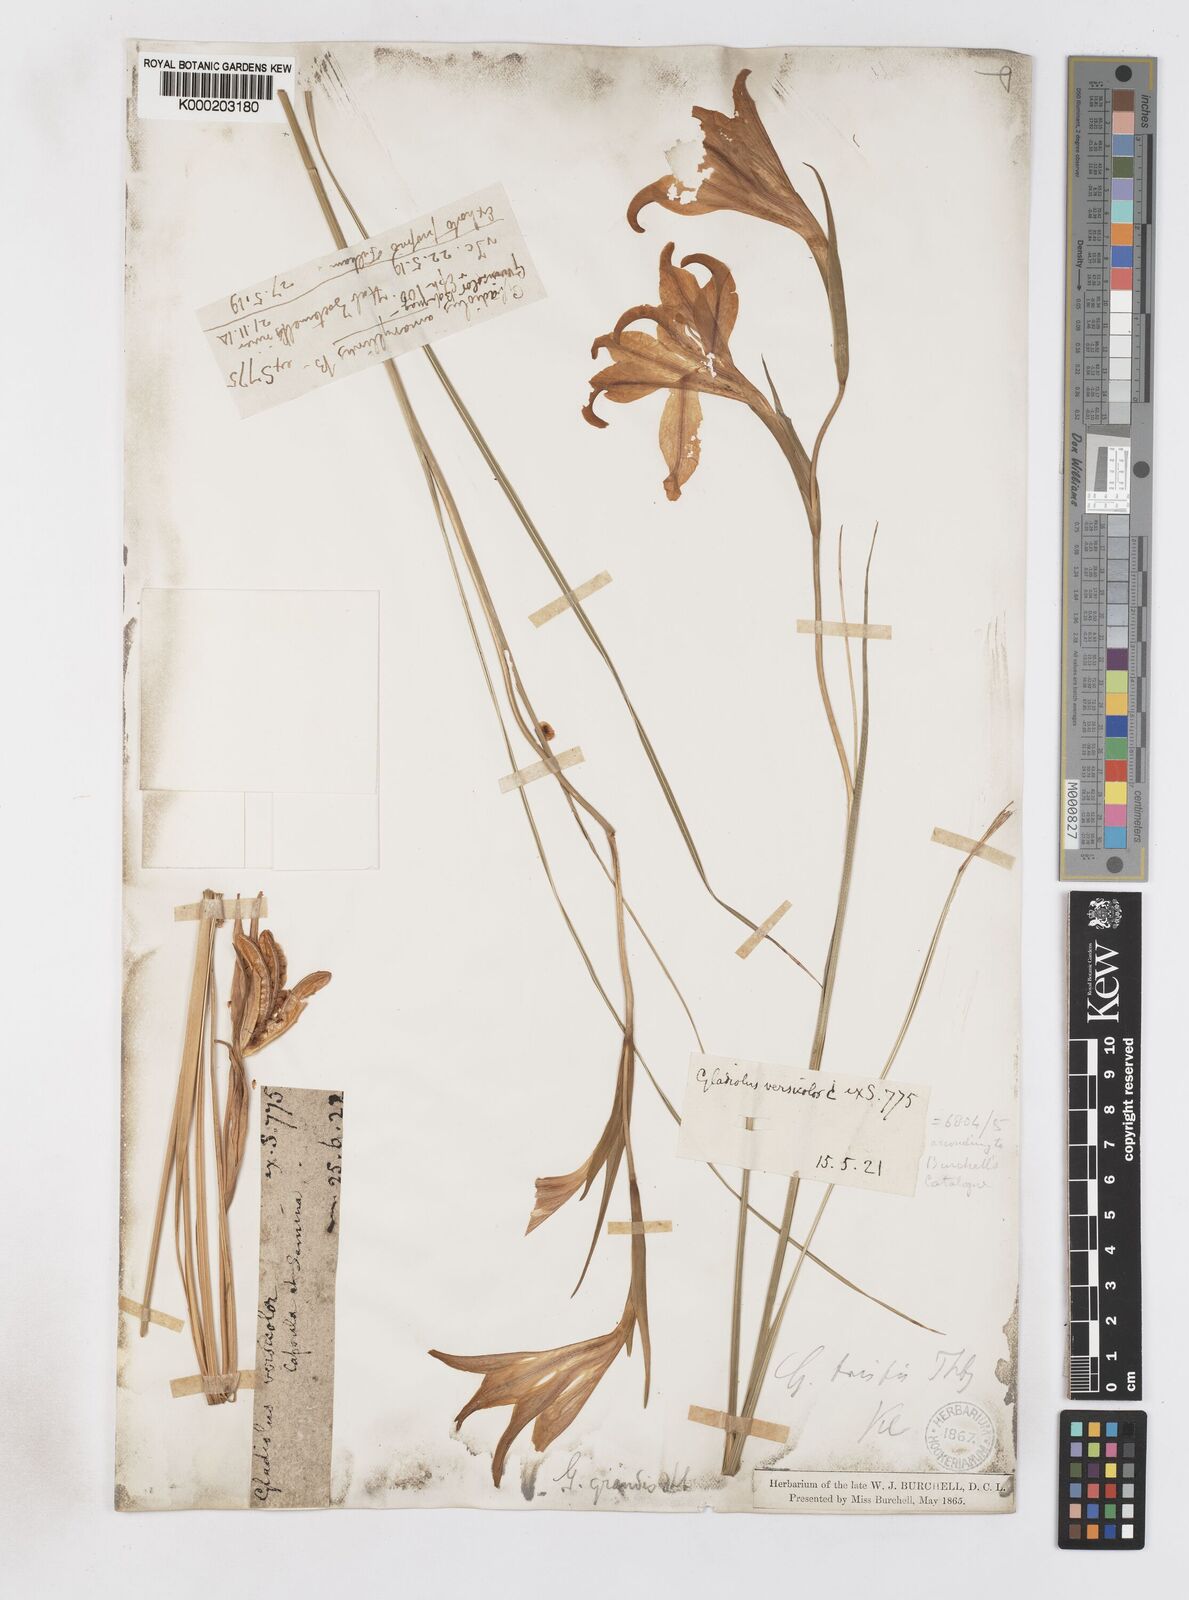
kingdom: Plantae
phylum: Tracheophyta
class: Liliopsida
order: Asparagales
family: Iridaceae
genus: Gladiolus
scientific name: Gladiolus liliaceus
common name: Large brown afrikaner
